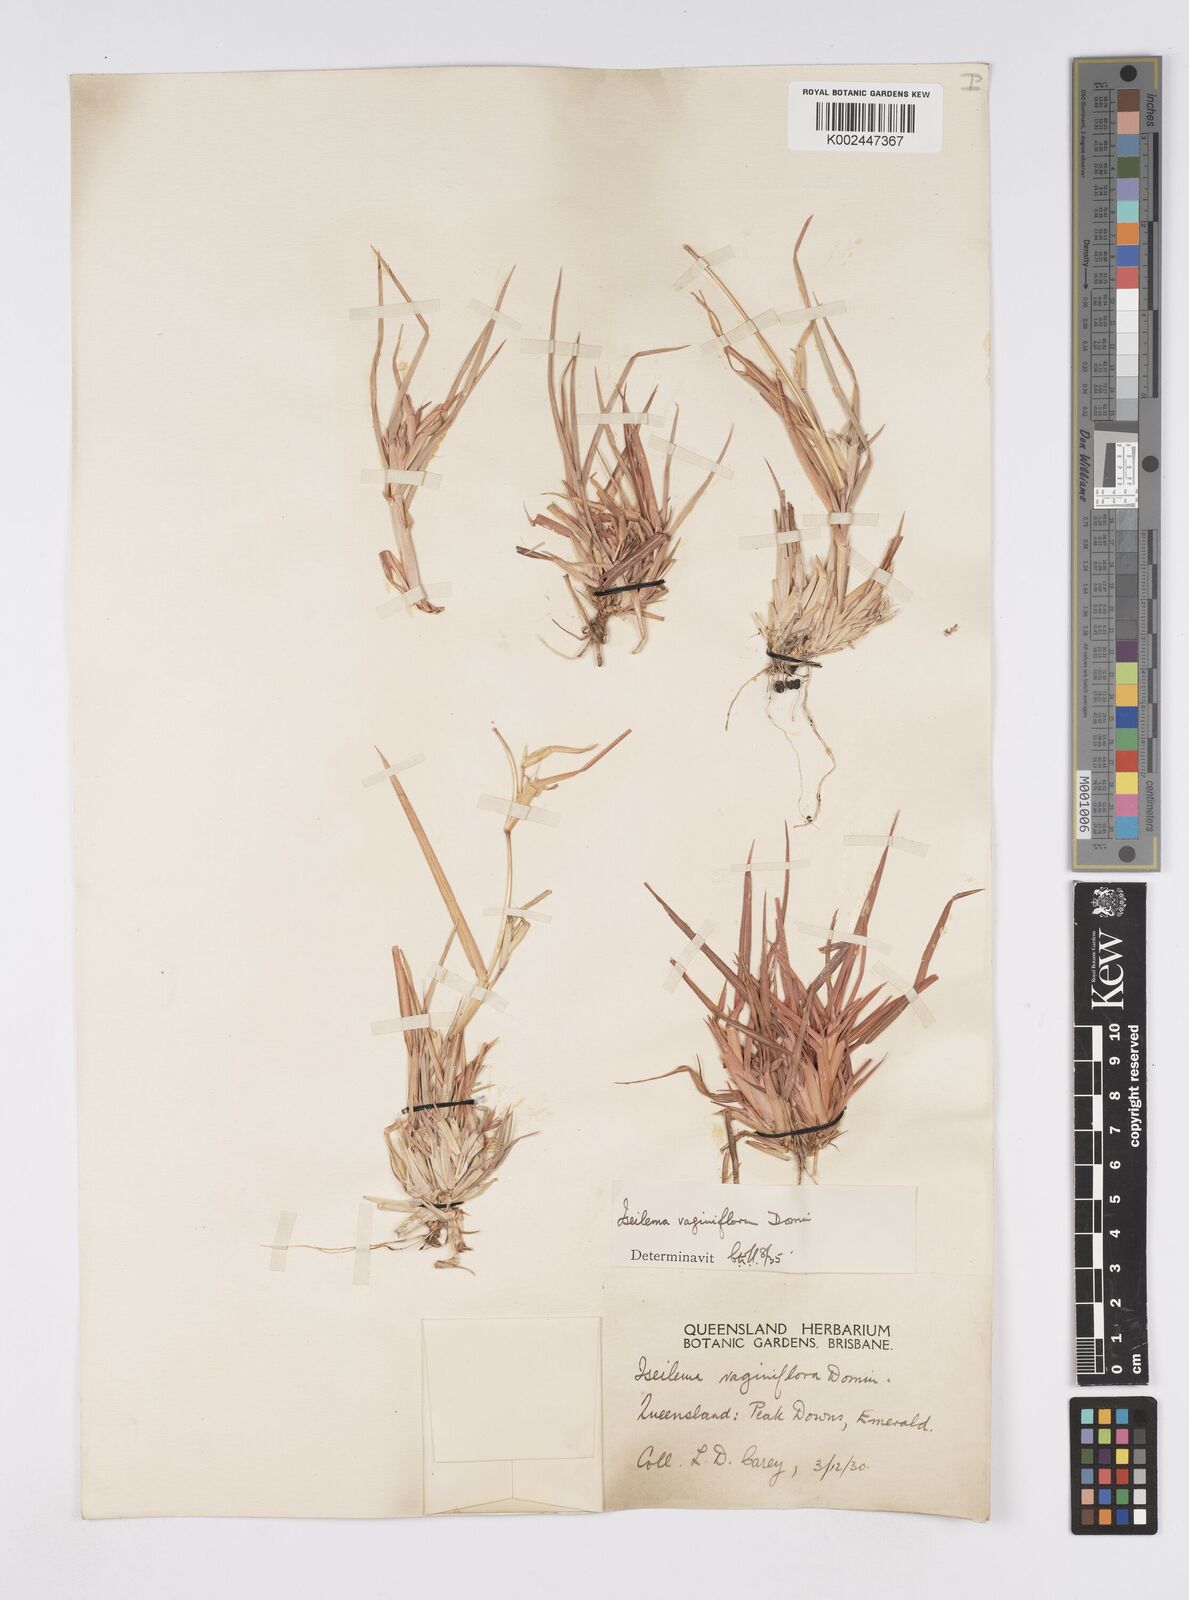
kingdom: Plantae
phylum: Tracheophyta
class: Liliopsida
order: Poales
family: Poaceae
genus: Iseilema
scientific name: Iseilema vaginiflorum
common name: Red flinders grass
